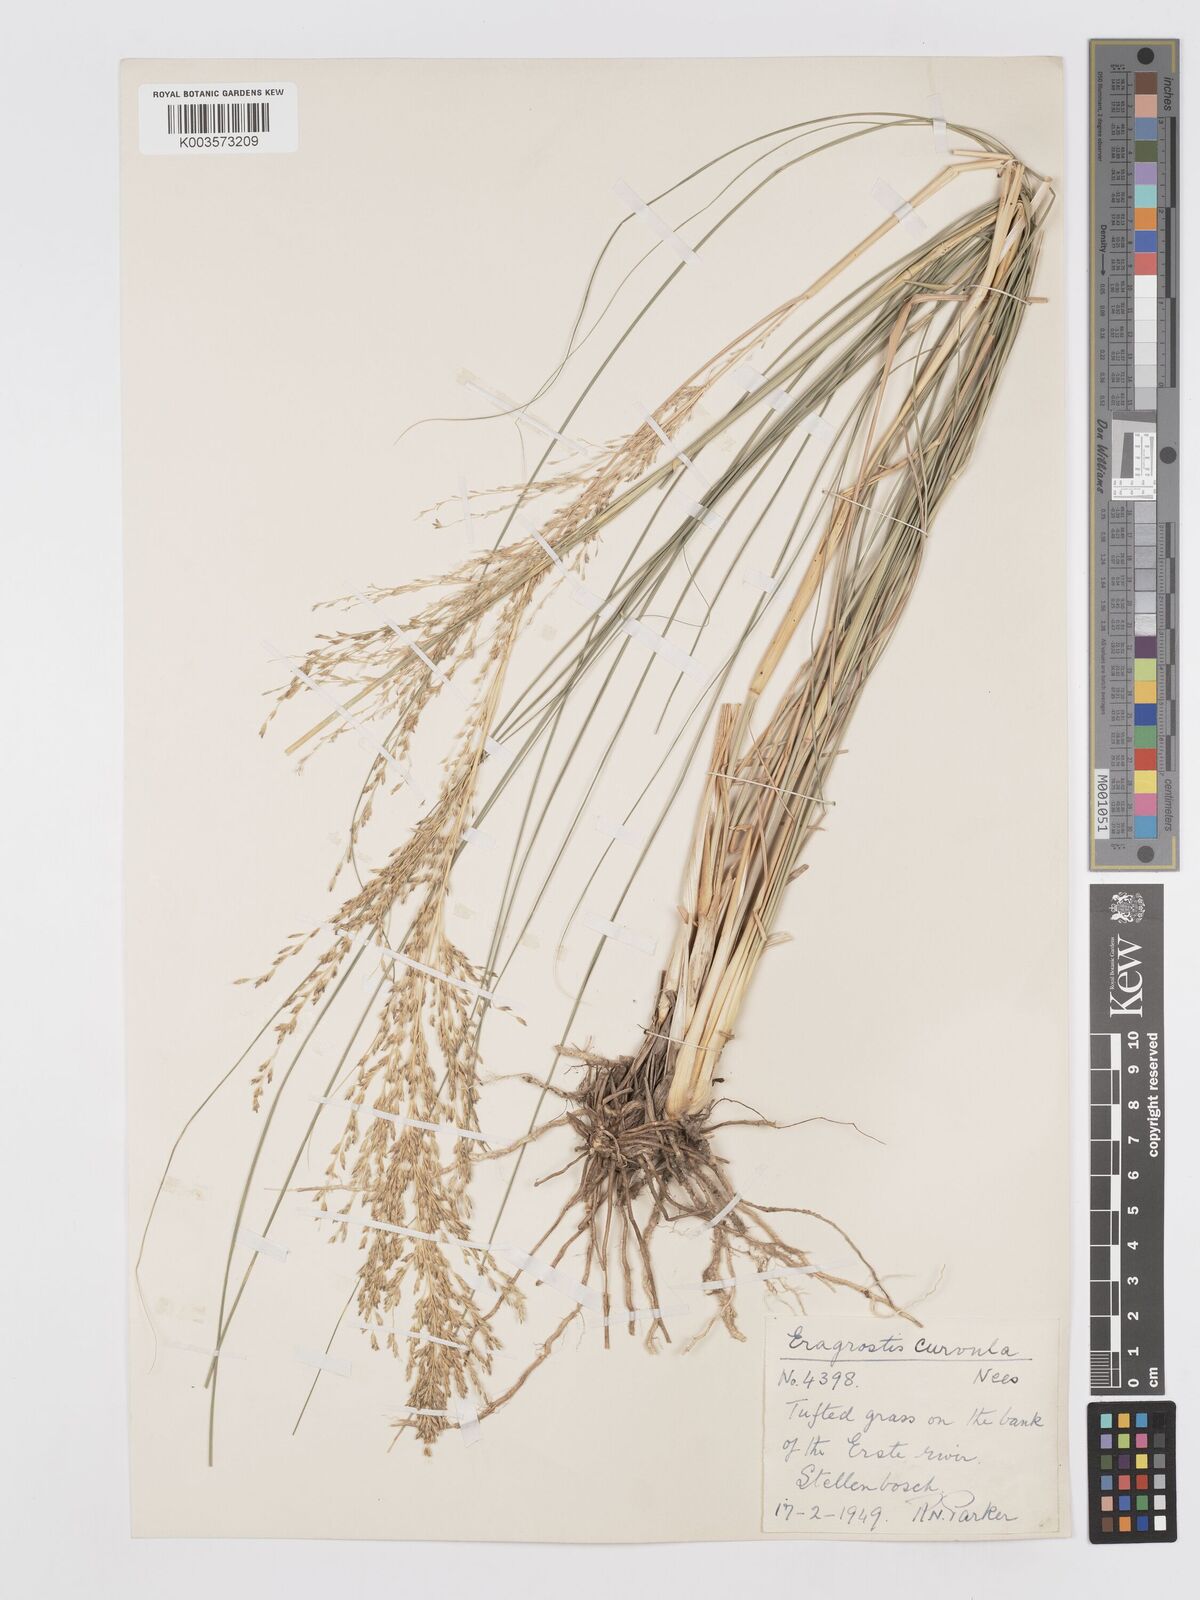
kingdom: Plantae
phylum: Tracheophyta
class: Liliopsida
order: Poales
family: Poaceae
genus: Eragrostis
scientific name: Eragrostis curvula
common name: African love-grass
